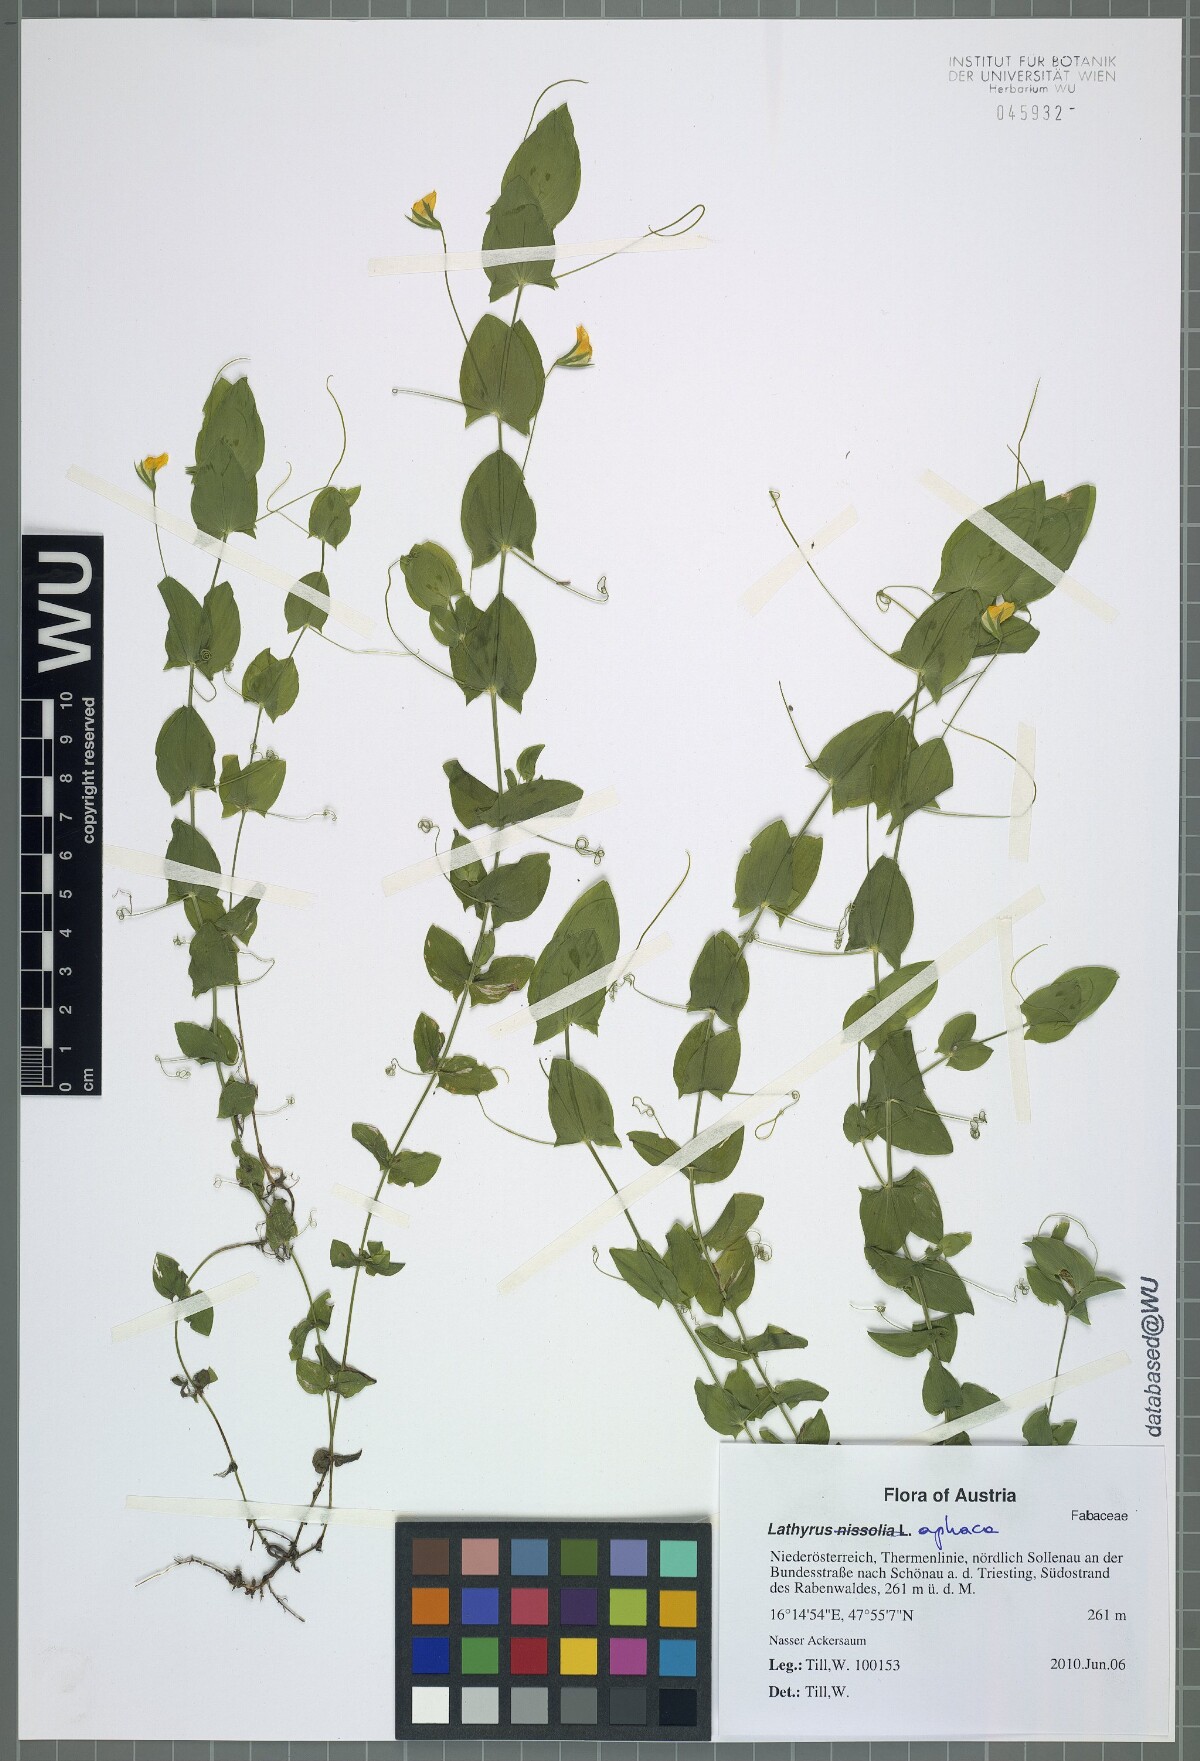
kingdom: Plantae
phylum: Tracheophyta
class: Magnoliopsida
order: Fabales
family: Fabaceae
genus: Lathyrus
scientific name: Lathyrus aphaca
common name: Yellow vetchling
